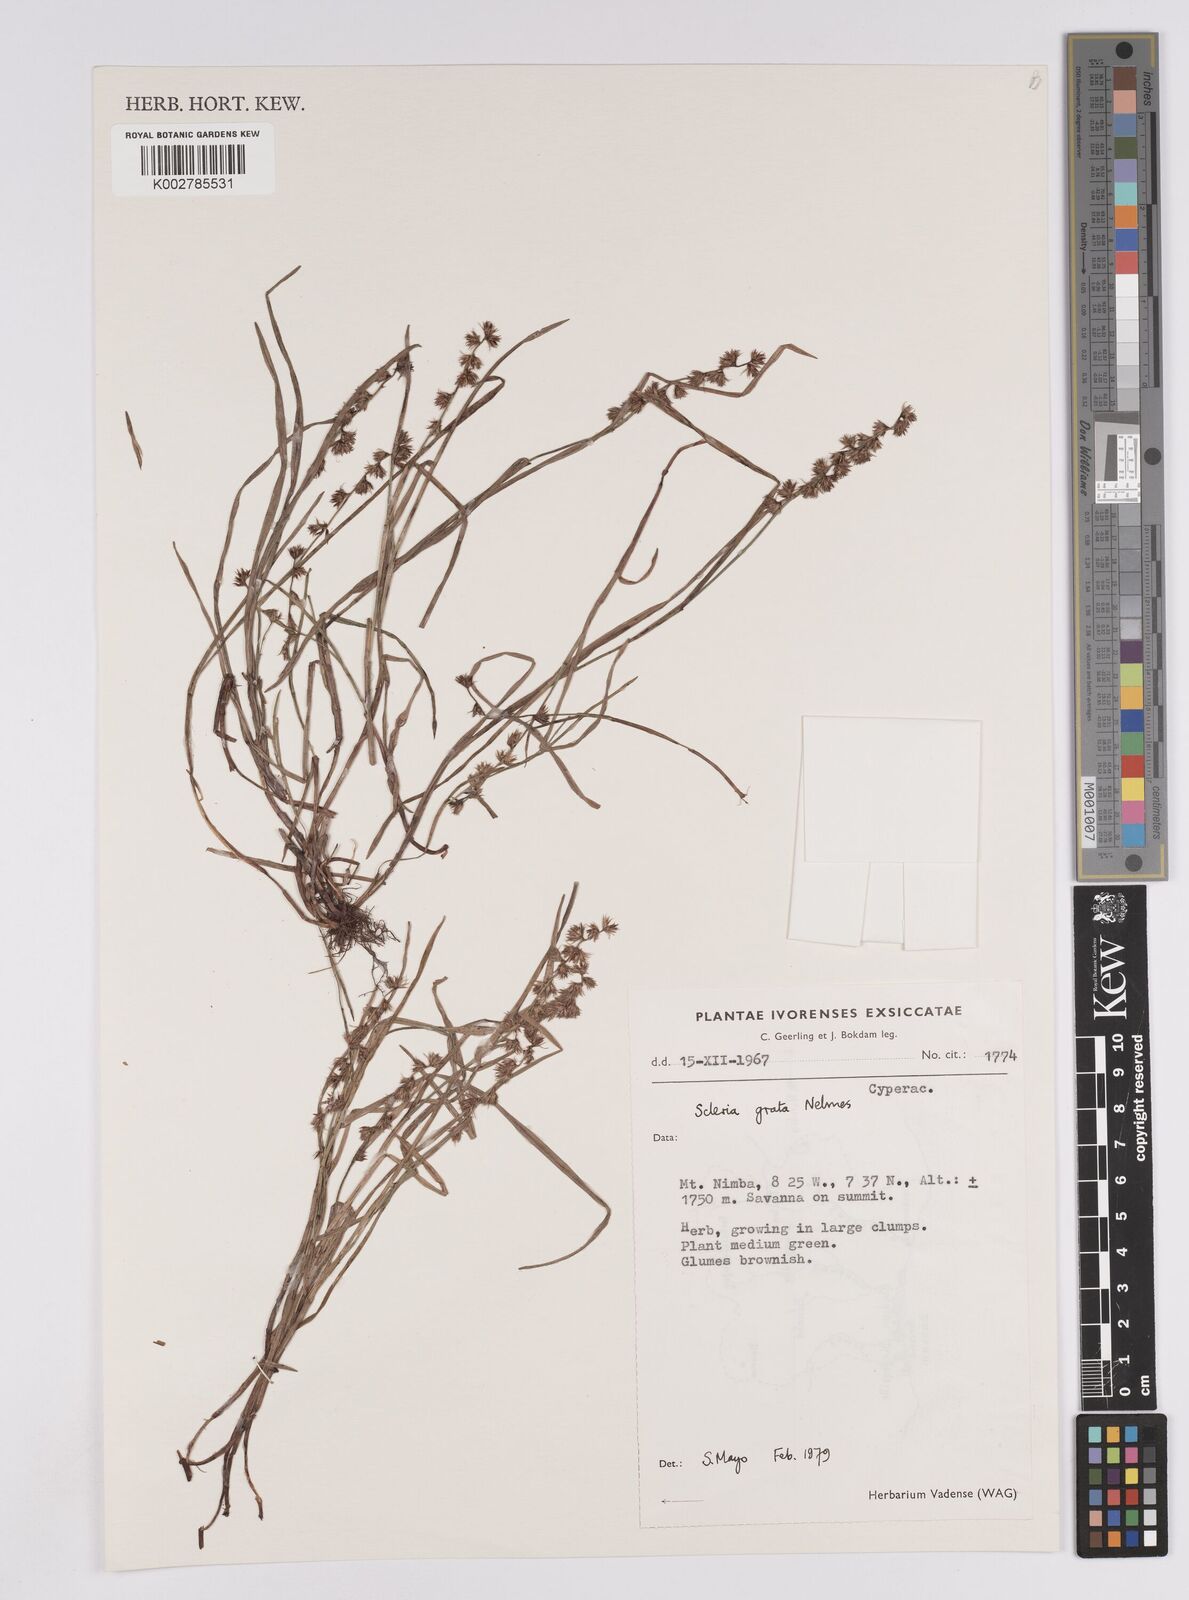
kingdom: Plantae
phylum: Tracheophyta
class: Liliopsida
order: Poales
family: Cyperaceae
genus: Scleria
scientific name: Scleria melanotricha
